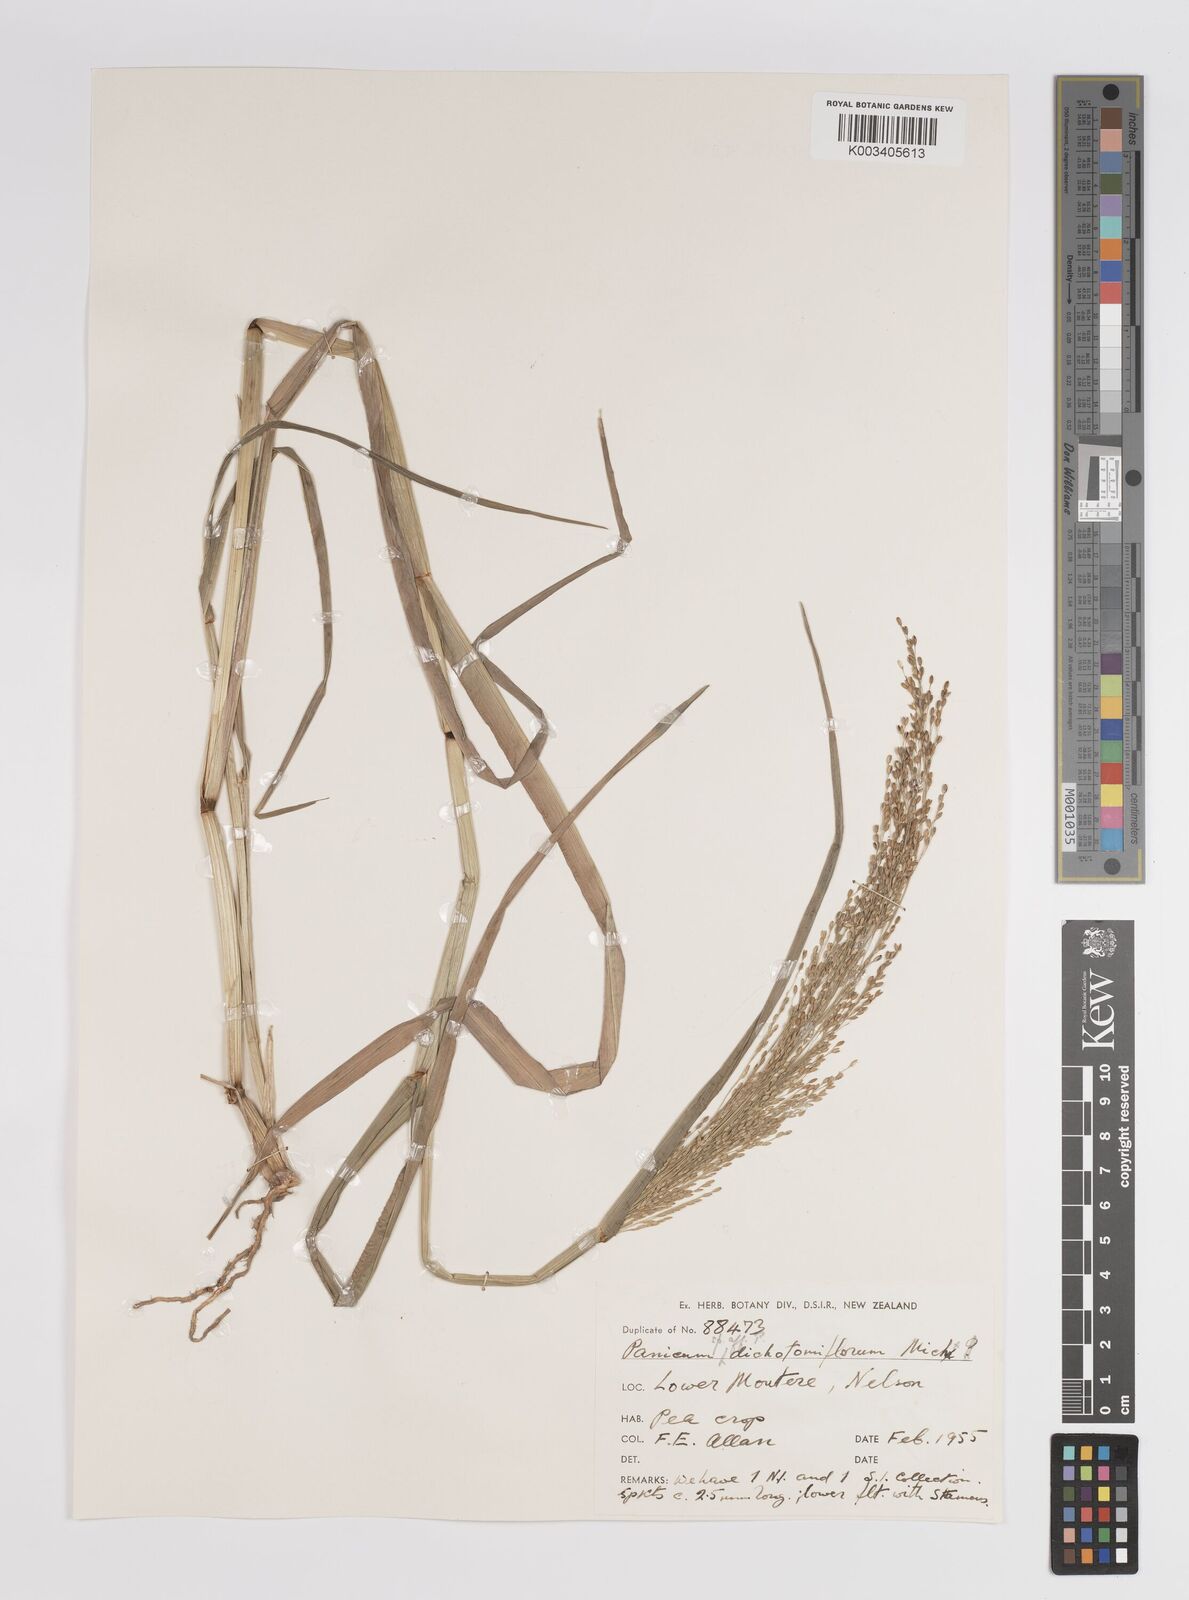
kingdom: Plantae
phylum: Tracheophyta
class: Liliopsida
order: Poales
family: Poaceae
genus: Panicum
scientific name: Panicum
